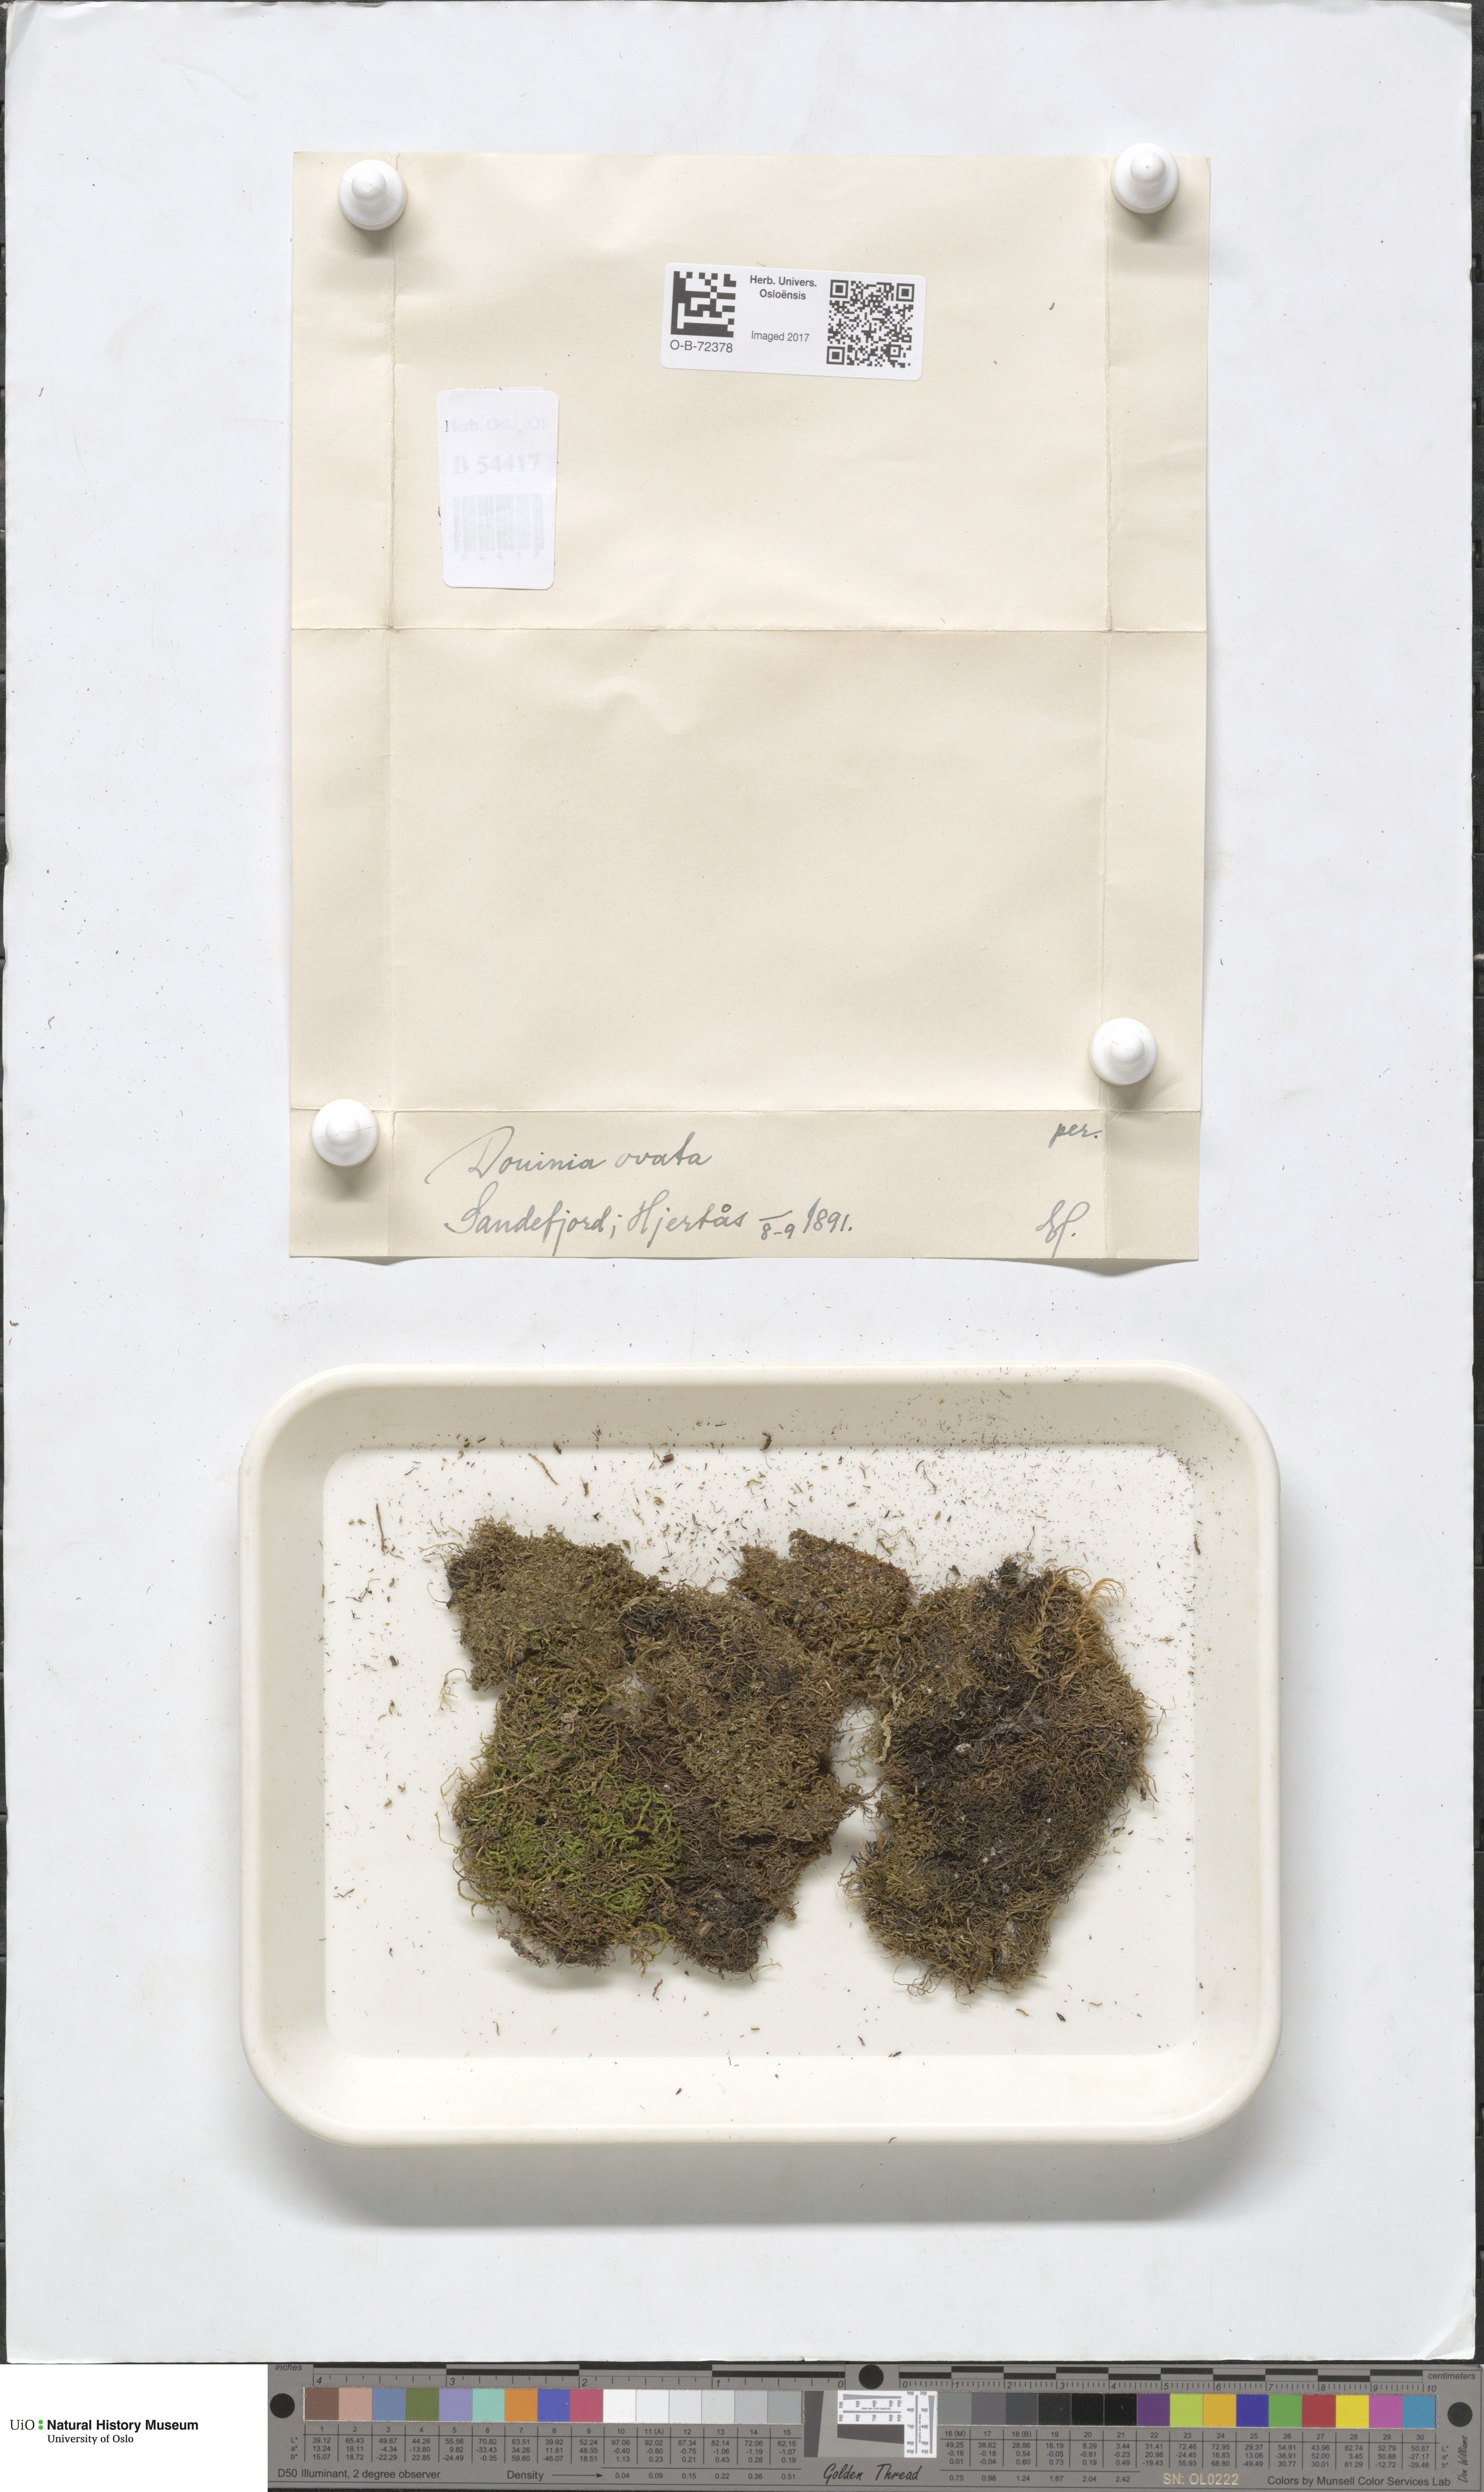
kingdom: Plantae
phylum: Marchantiophyta
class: Jungermanniopsida
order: Jungermanniales
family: Scapaniaceae
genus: Douinia
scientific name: Douinia ovata
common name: Waxy earwort
